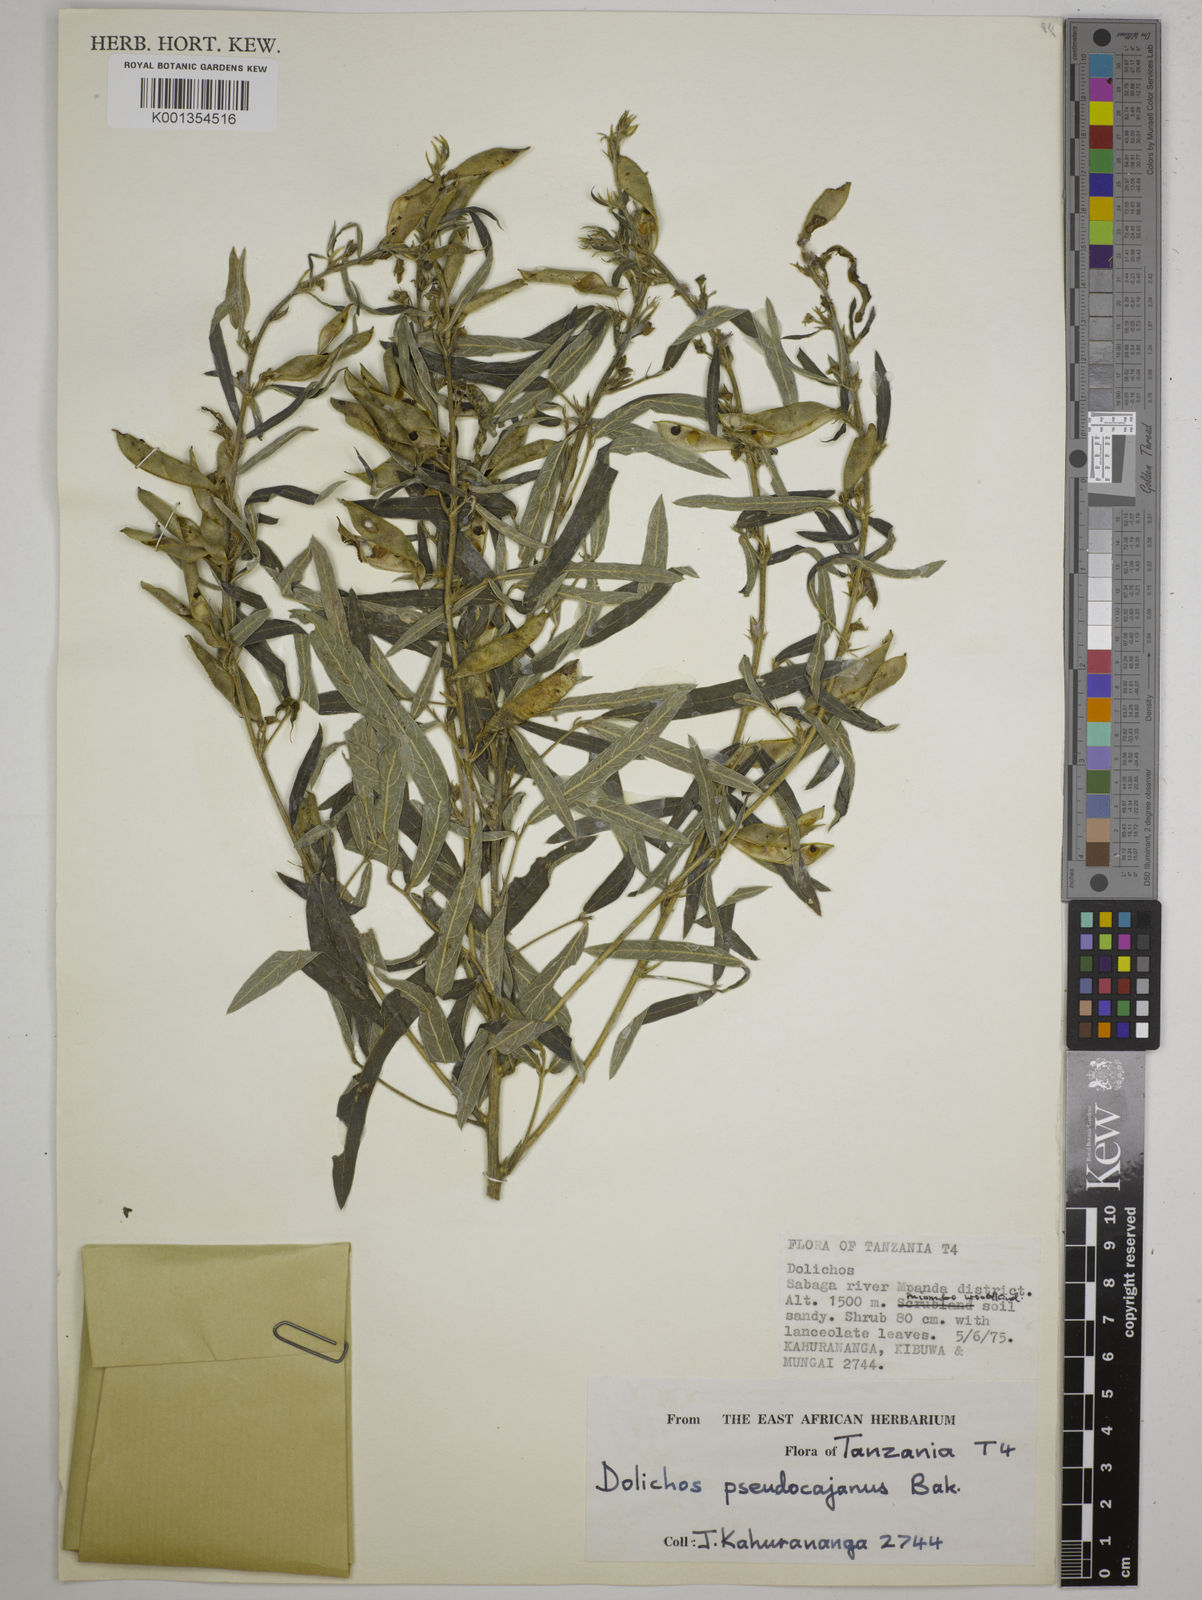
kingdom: Plantae
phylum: Tracheophyta
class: Magnoliopsida
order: Fabales
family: Fabaceae
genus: Dolichos
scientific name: Dolichos pseudocajanus
